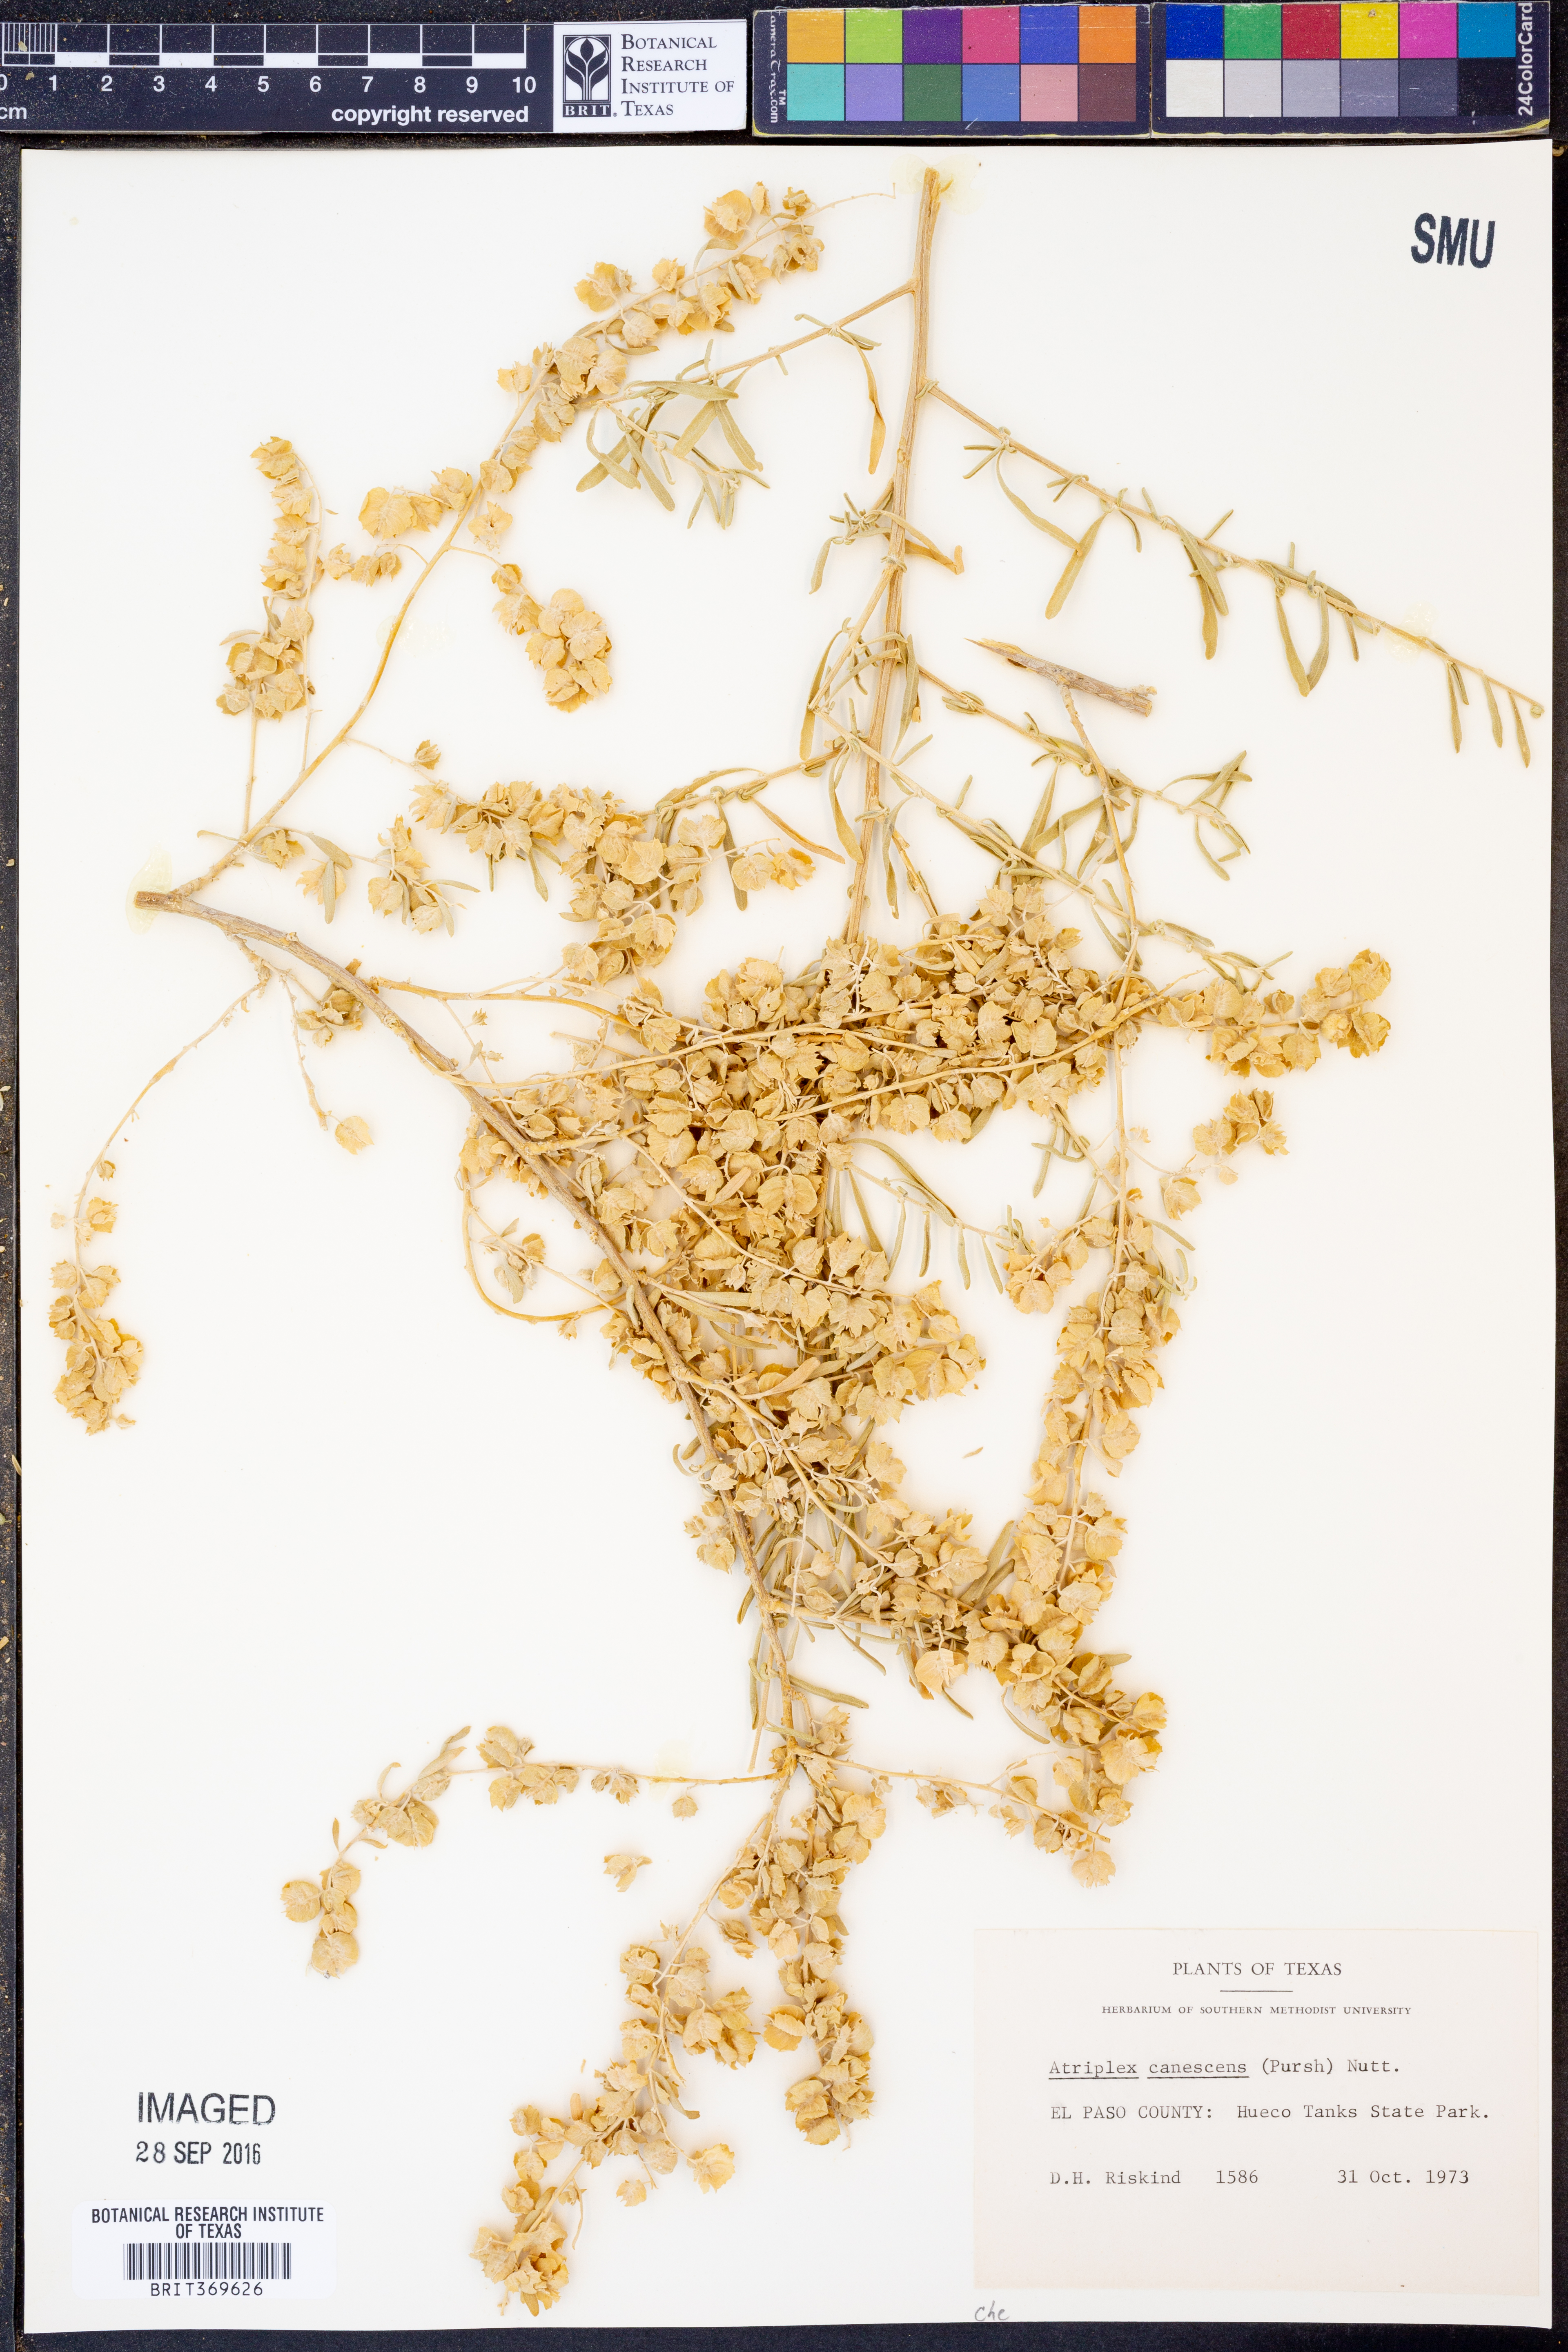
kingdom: Plantae
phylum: Tracheophyta
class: Magnoliopsida
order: Caryophyllales
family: Amaranthaceae
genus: Atriplex
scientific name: Atriplex canescens
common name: Four-wing saltbush
